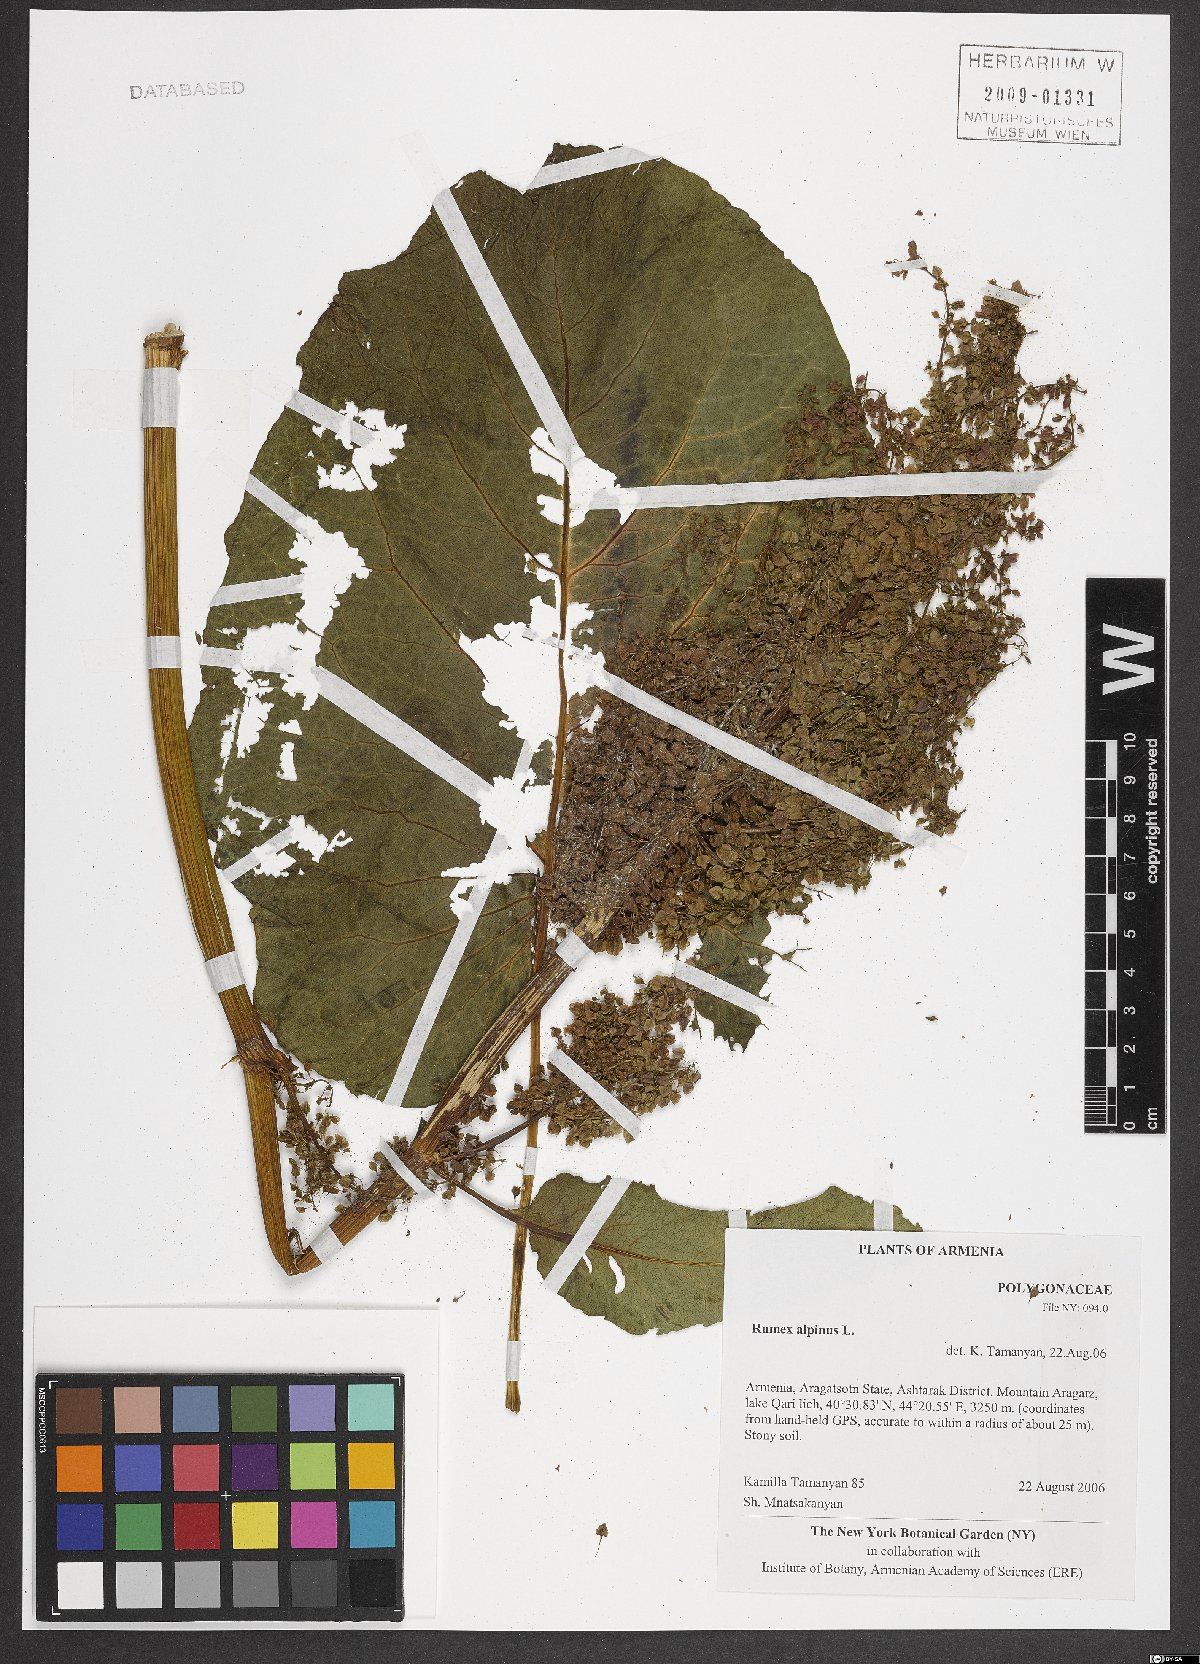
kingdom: Plantae
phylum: Tracheophyta
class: Magnoliopsida
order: Caryophyllales
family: Polygonaceae
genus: Rumex
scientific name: Rumex alpinus
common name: Alpine dock
